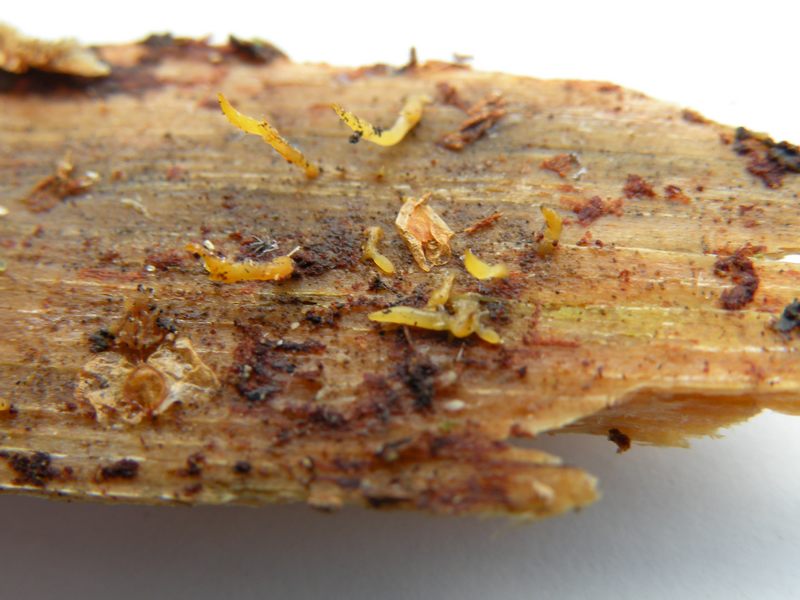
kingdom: Fungi
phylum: Basidiomycota
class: Dacrymycetes
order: Dacrymycetales
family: Dacrymycetaceae
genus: Calocera
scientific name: Calocera furcata
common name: fyrre-guldgaffel
